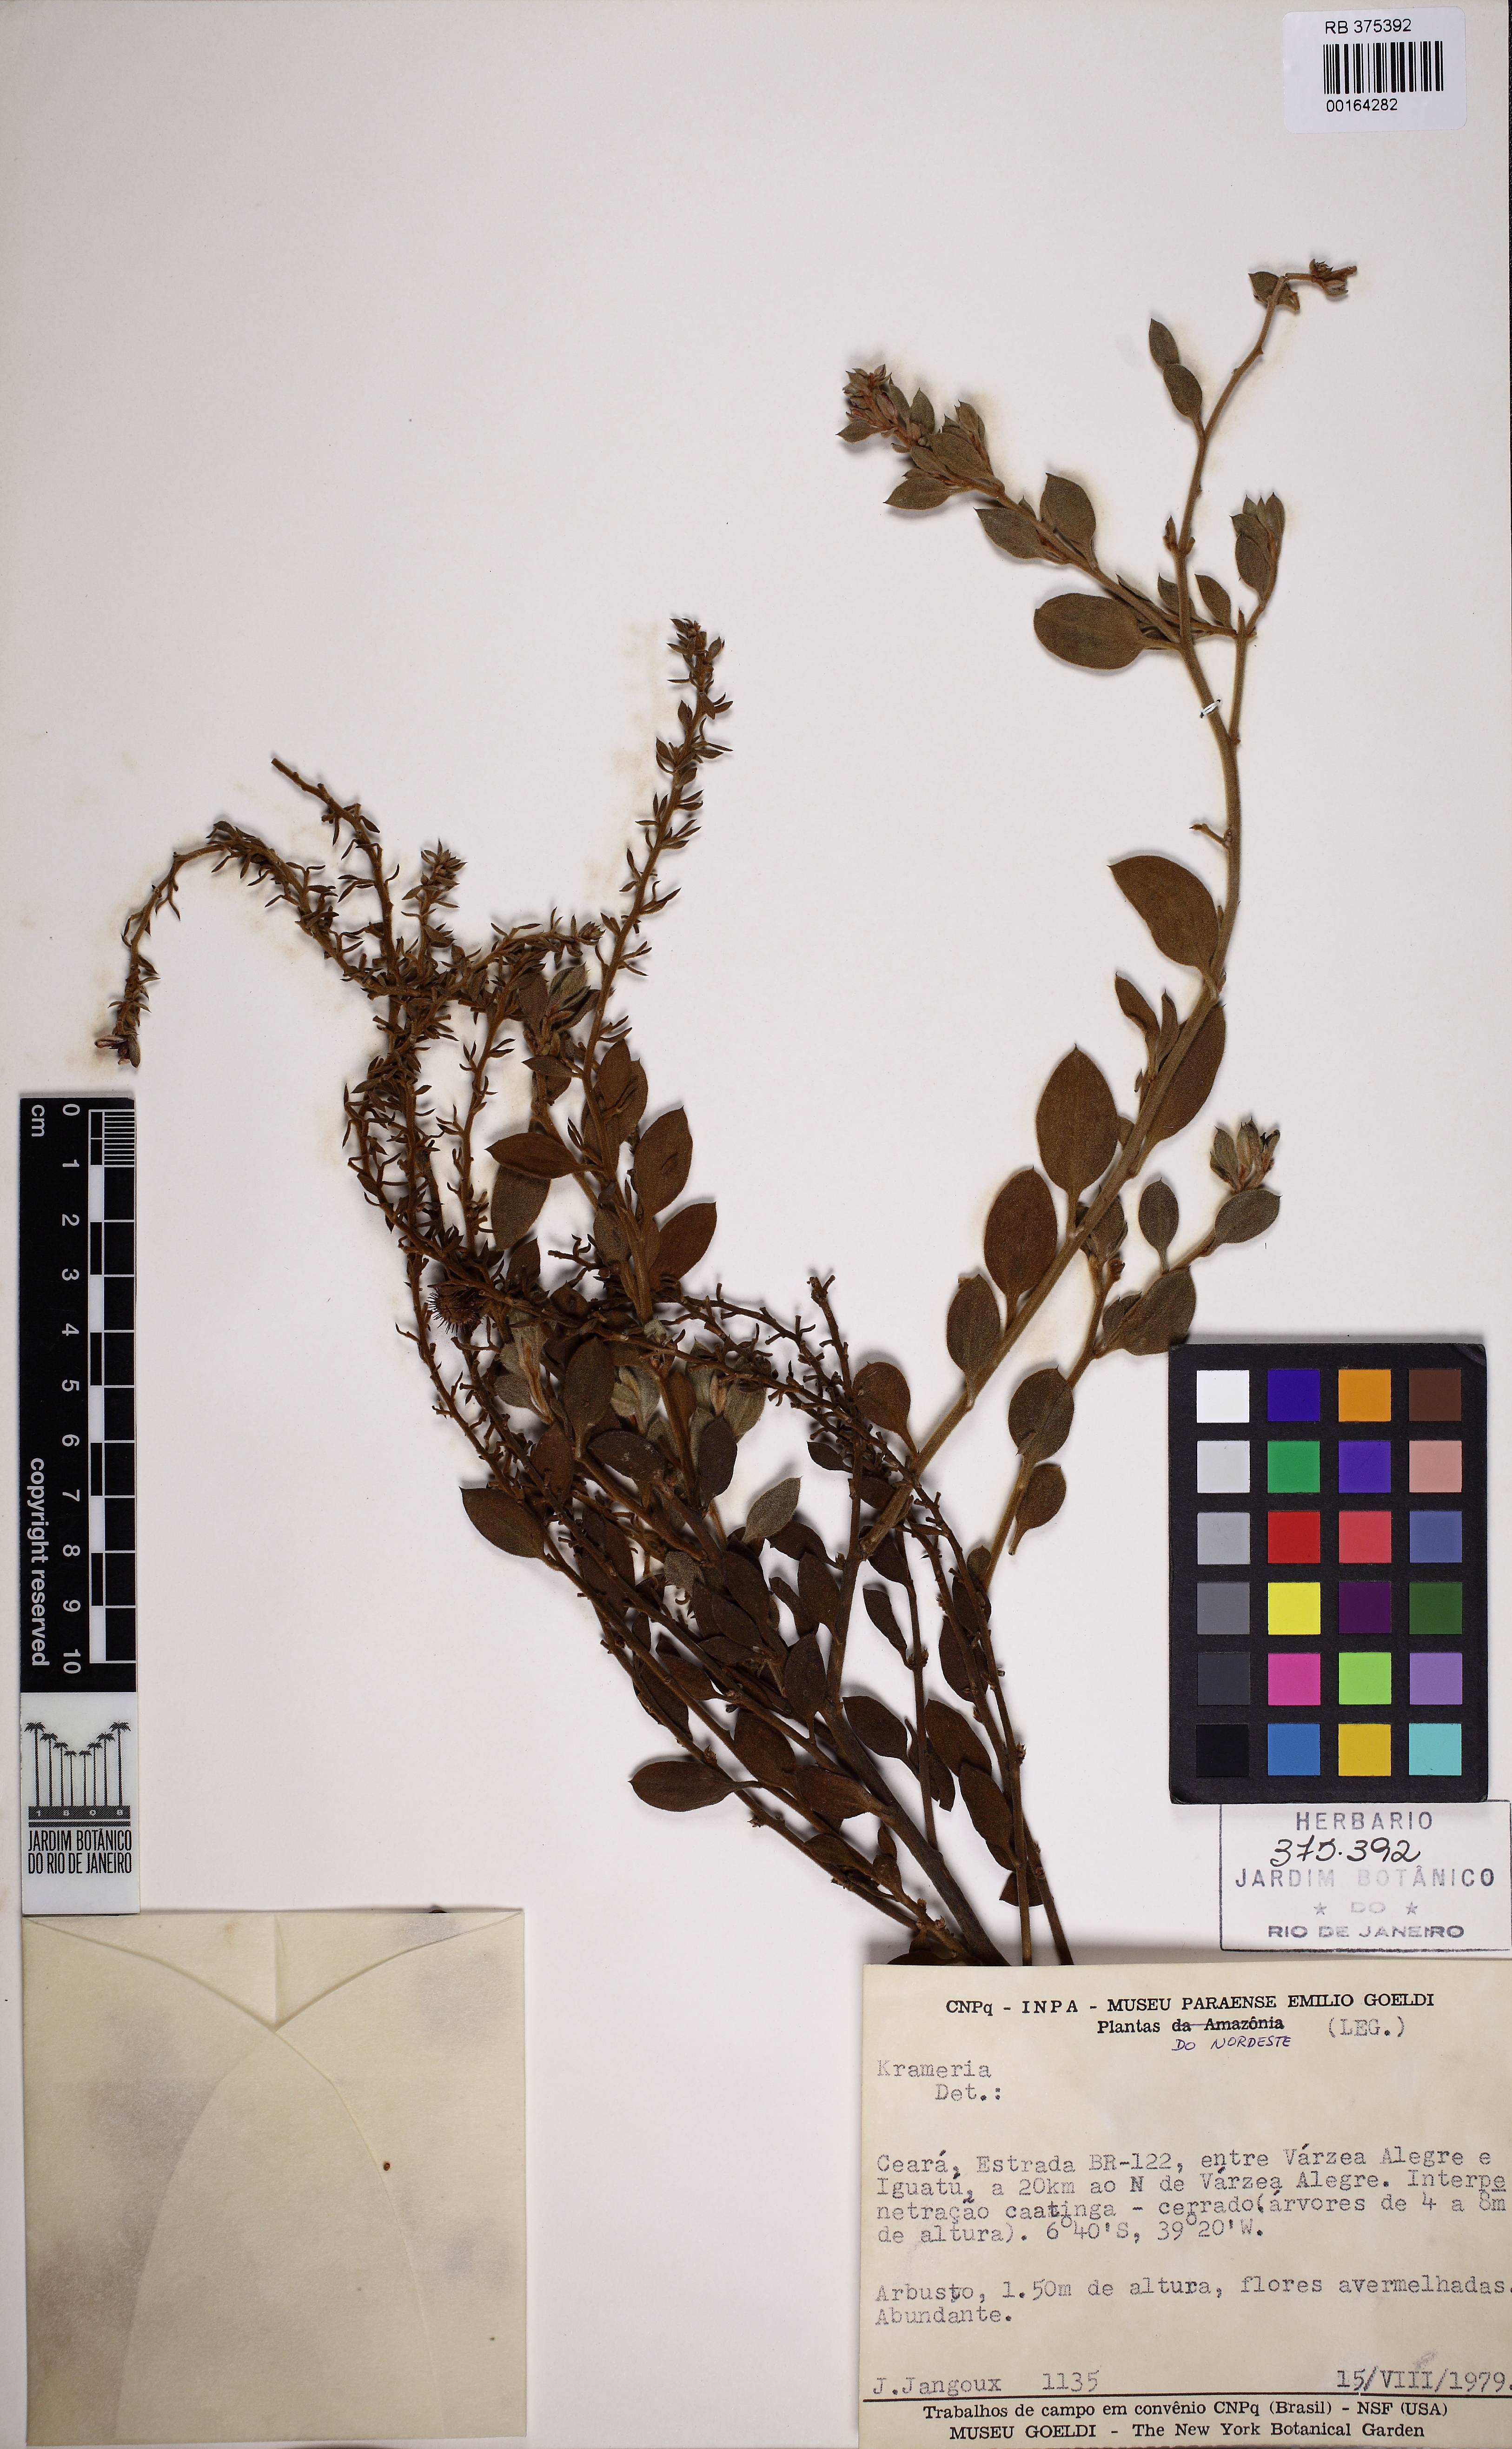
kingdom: Plantae
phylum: Tracheophyta
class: Magnoliopsida
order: Zygophyllales
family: Krameriaceae
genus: Krameria
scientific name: Krameria tomentosa
